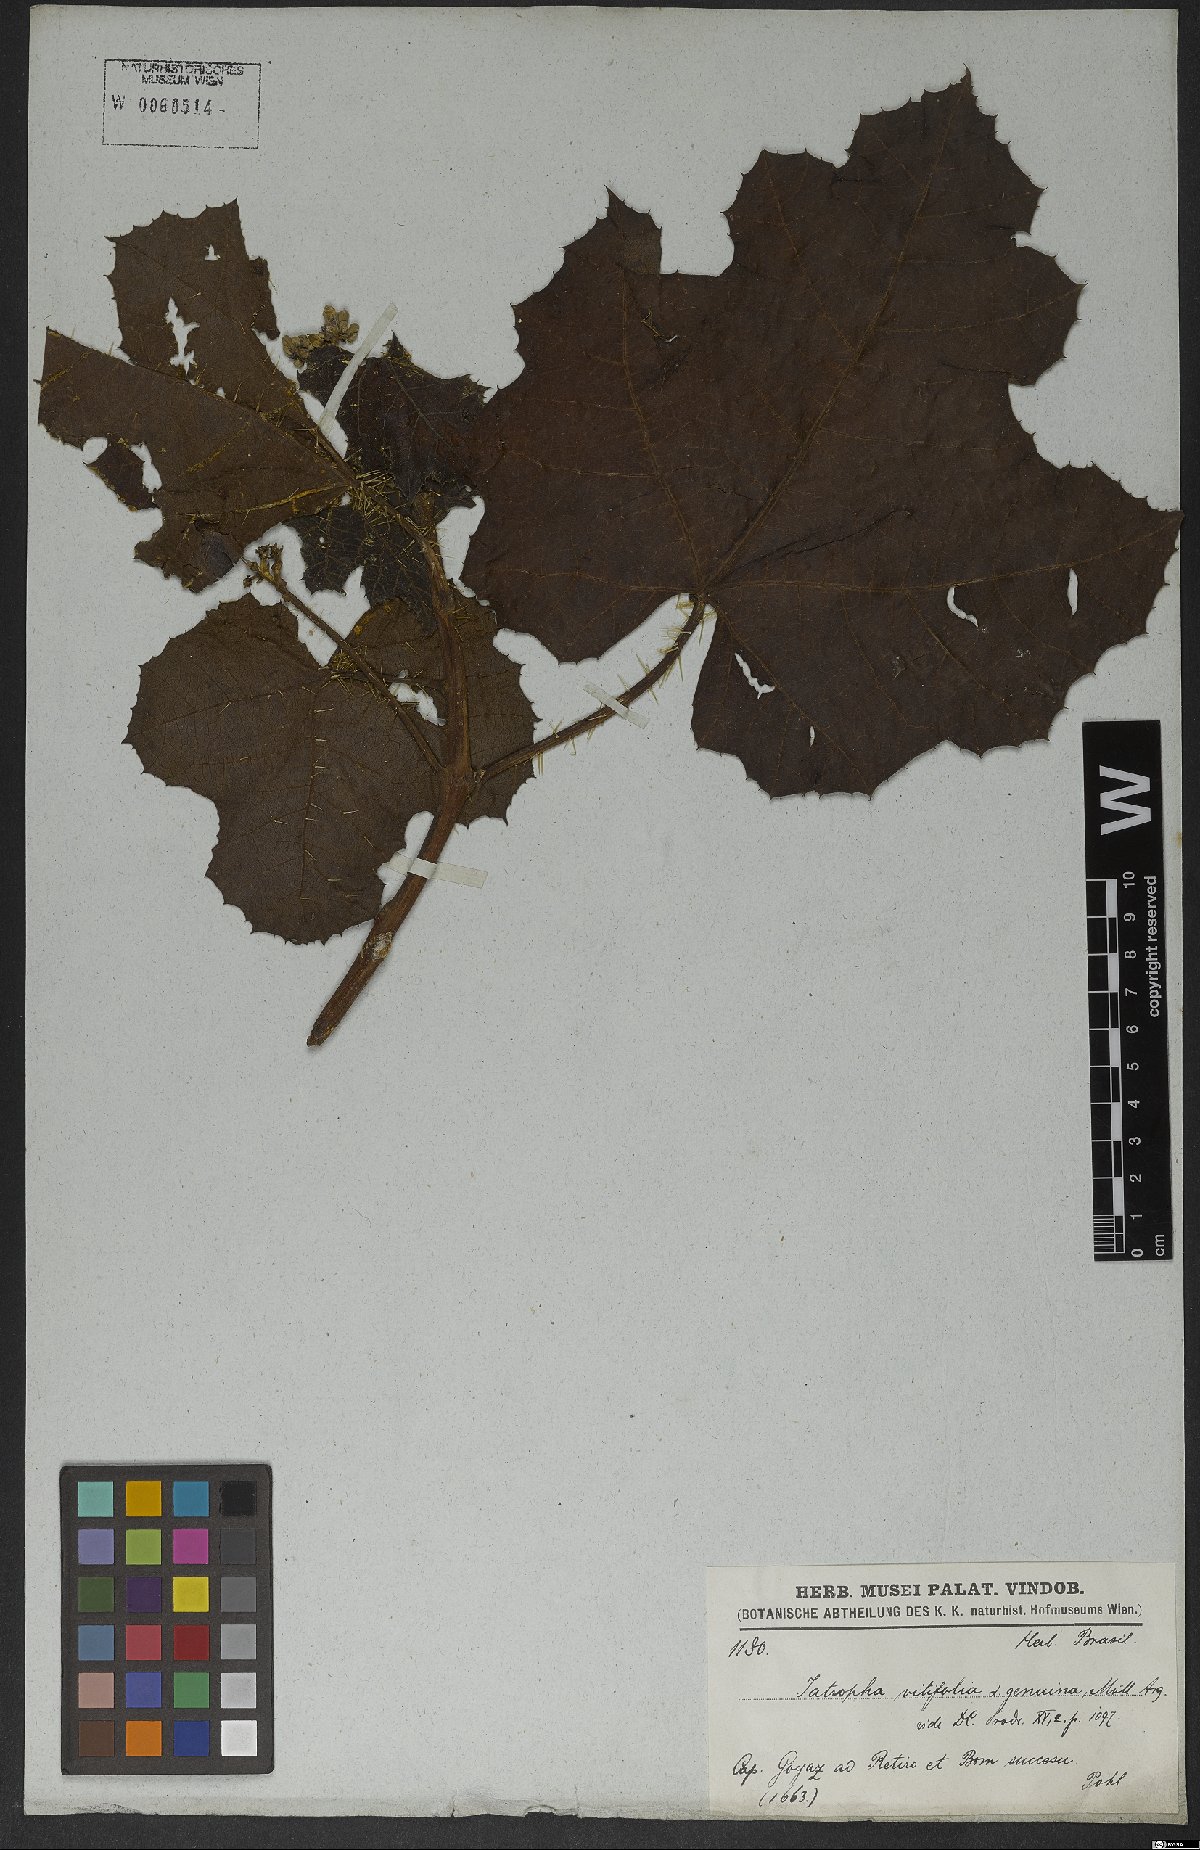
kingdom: Plantae
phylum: Tracheophyta
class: Magnoliopsida
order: Malpighiales
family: Euphorbiaceae
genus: Cnidoscolus
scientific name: Cnidoscolus vitifolius
